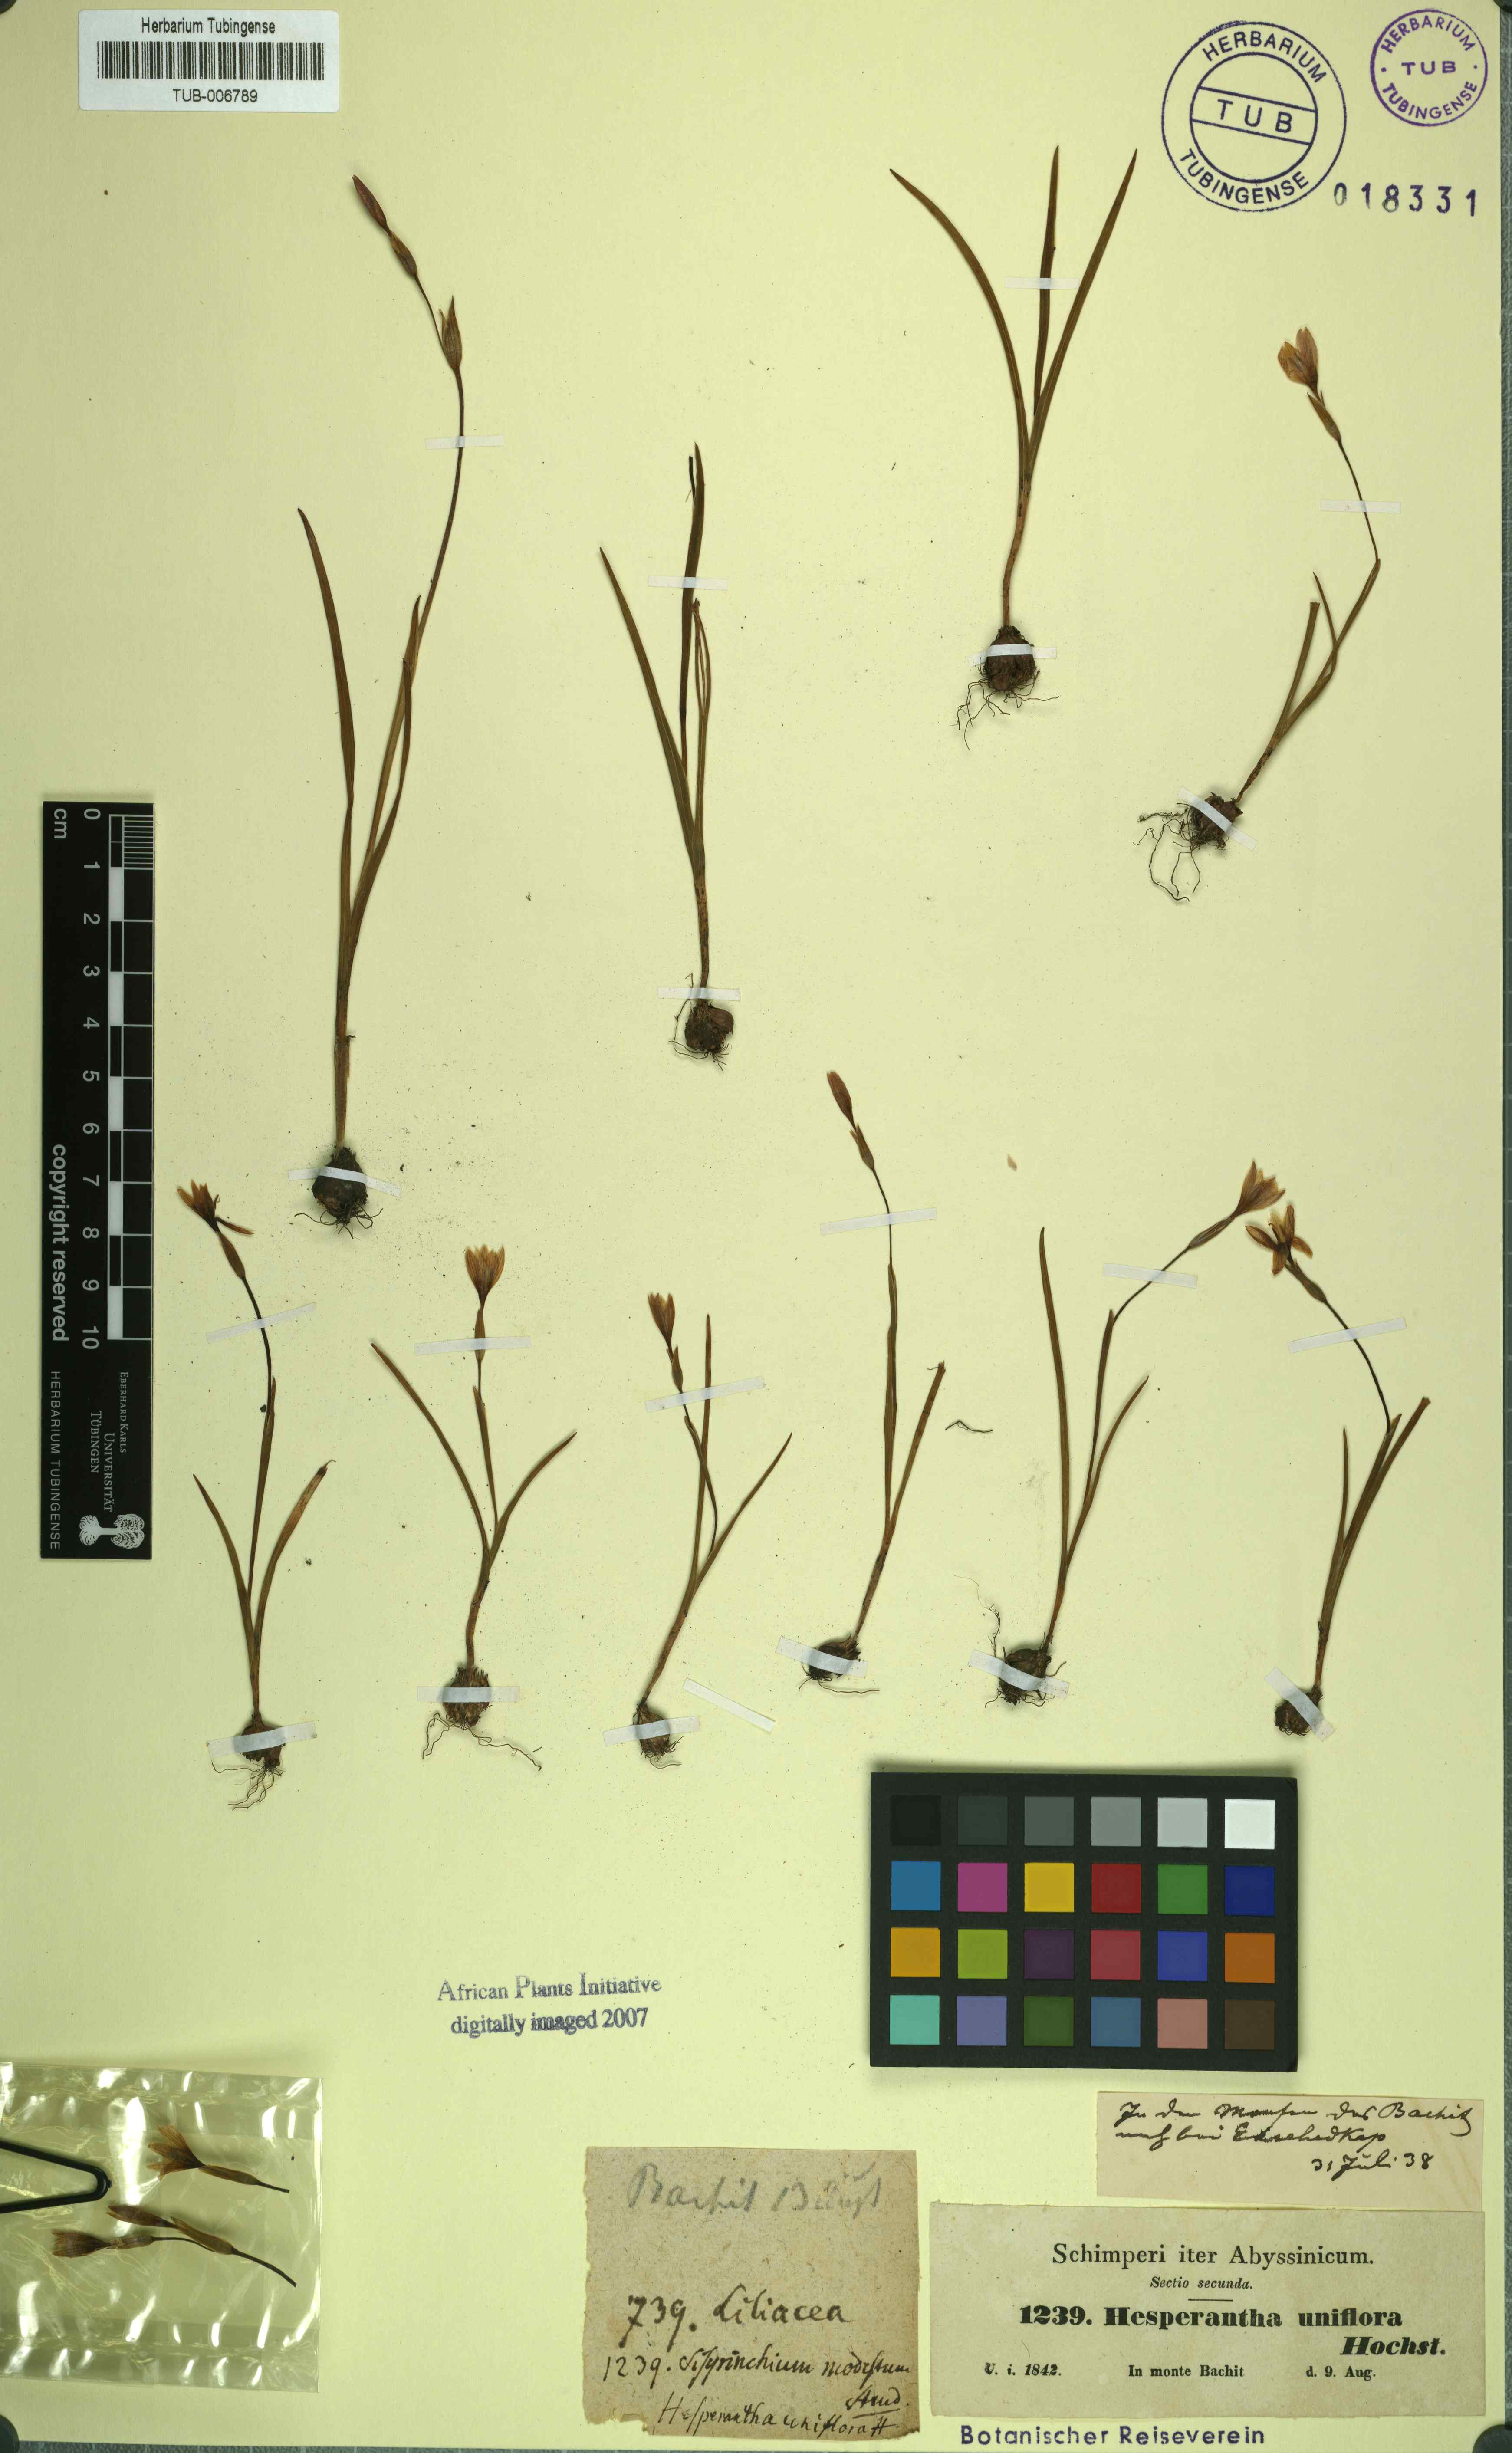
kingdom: Plantae
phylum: Tracheophyta
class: Liliopsida
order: Asparagales
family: Iridaceae
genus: Hesperantha
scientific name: Hesperantha petitiana
